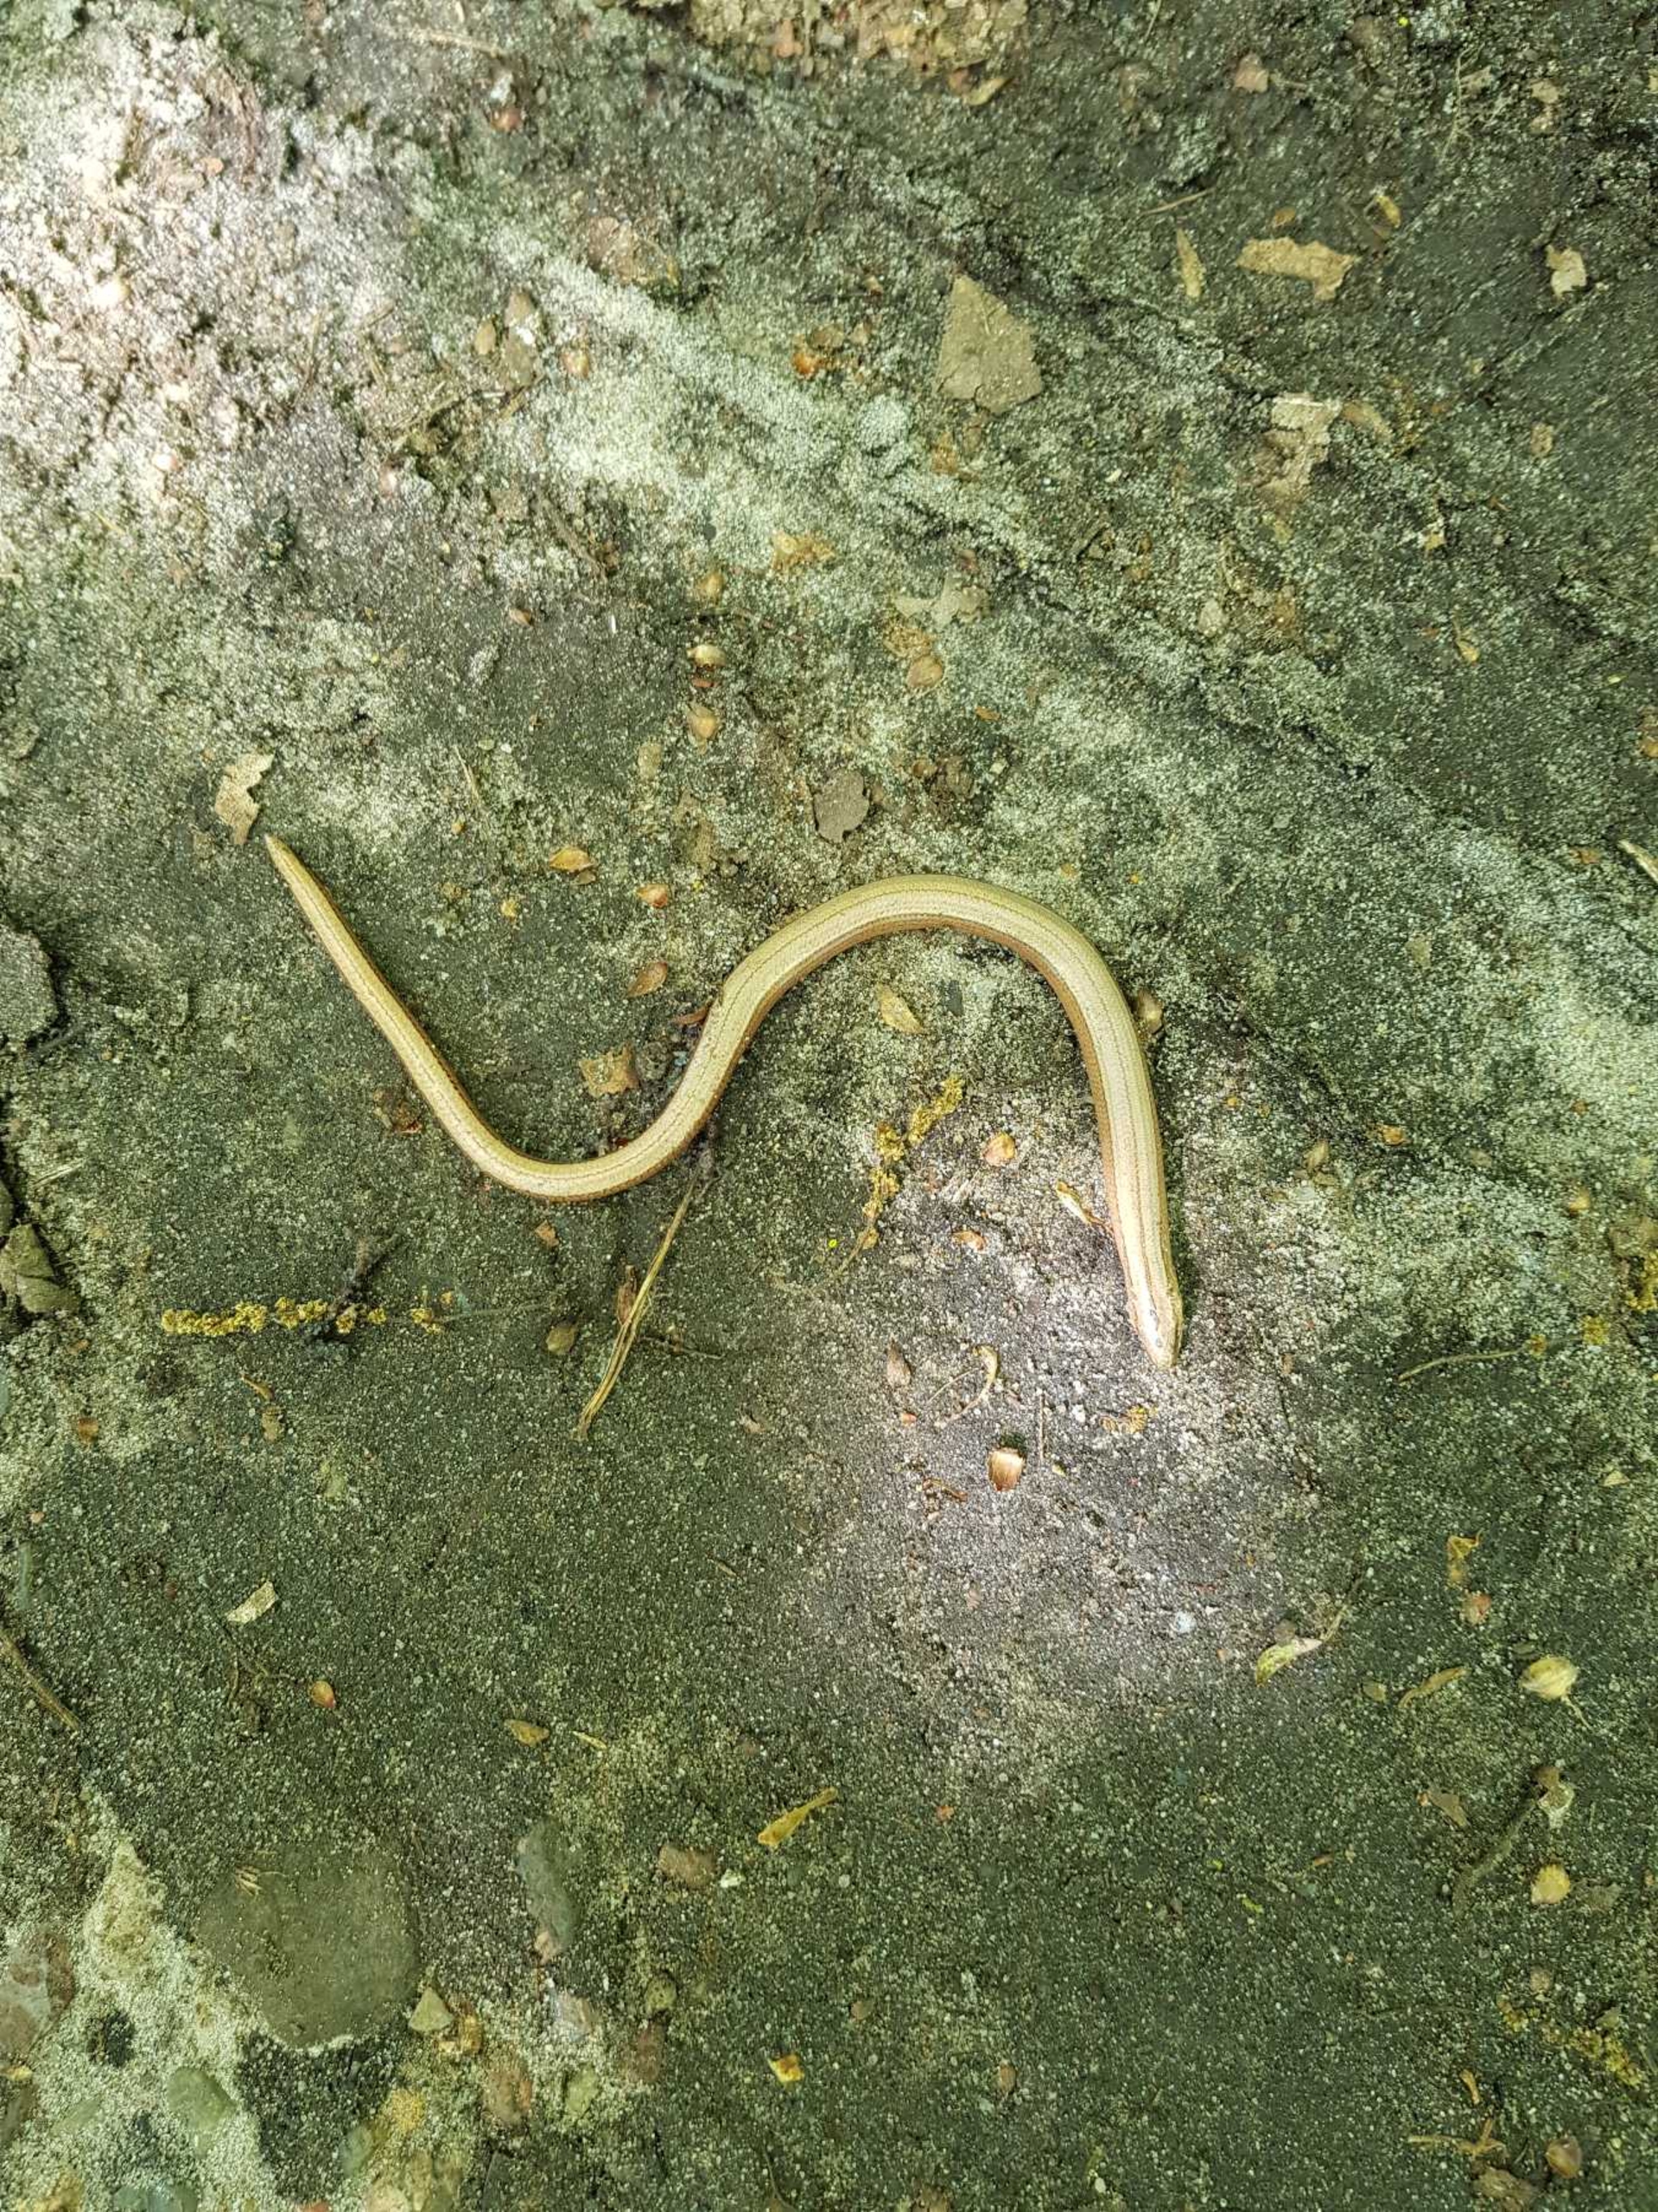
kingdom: Animalia
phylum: Chordata
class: Squamata
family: Anguidae
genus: Anguis
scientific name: Anguis fragilis
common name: Stålorm
